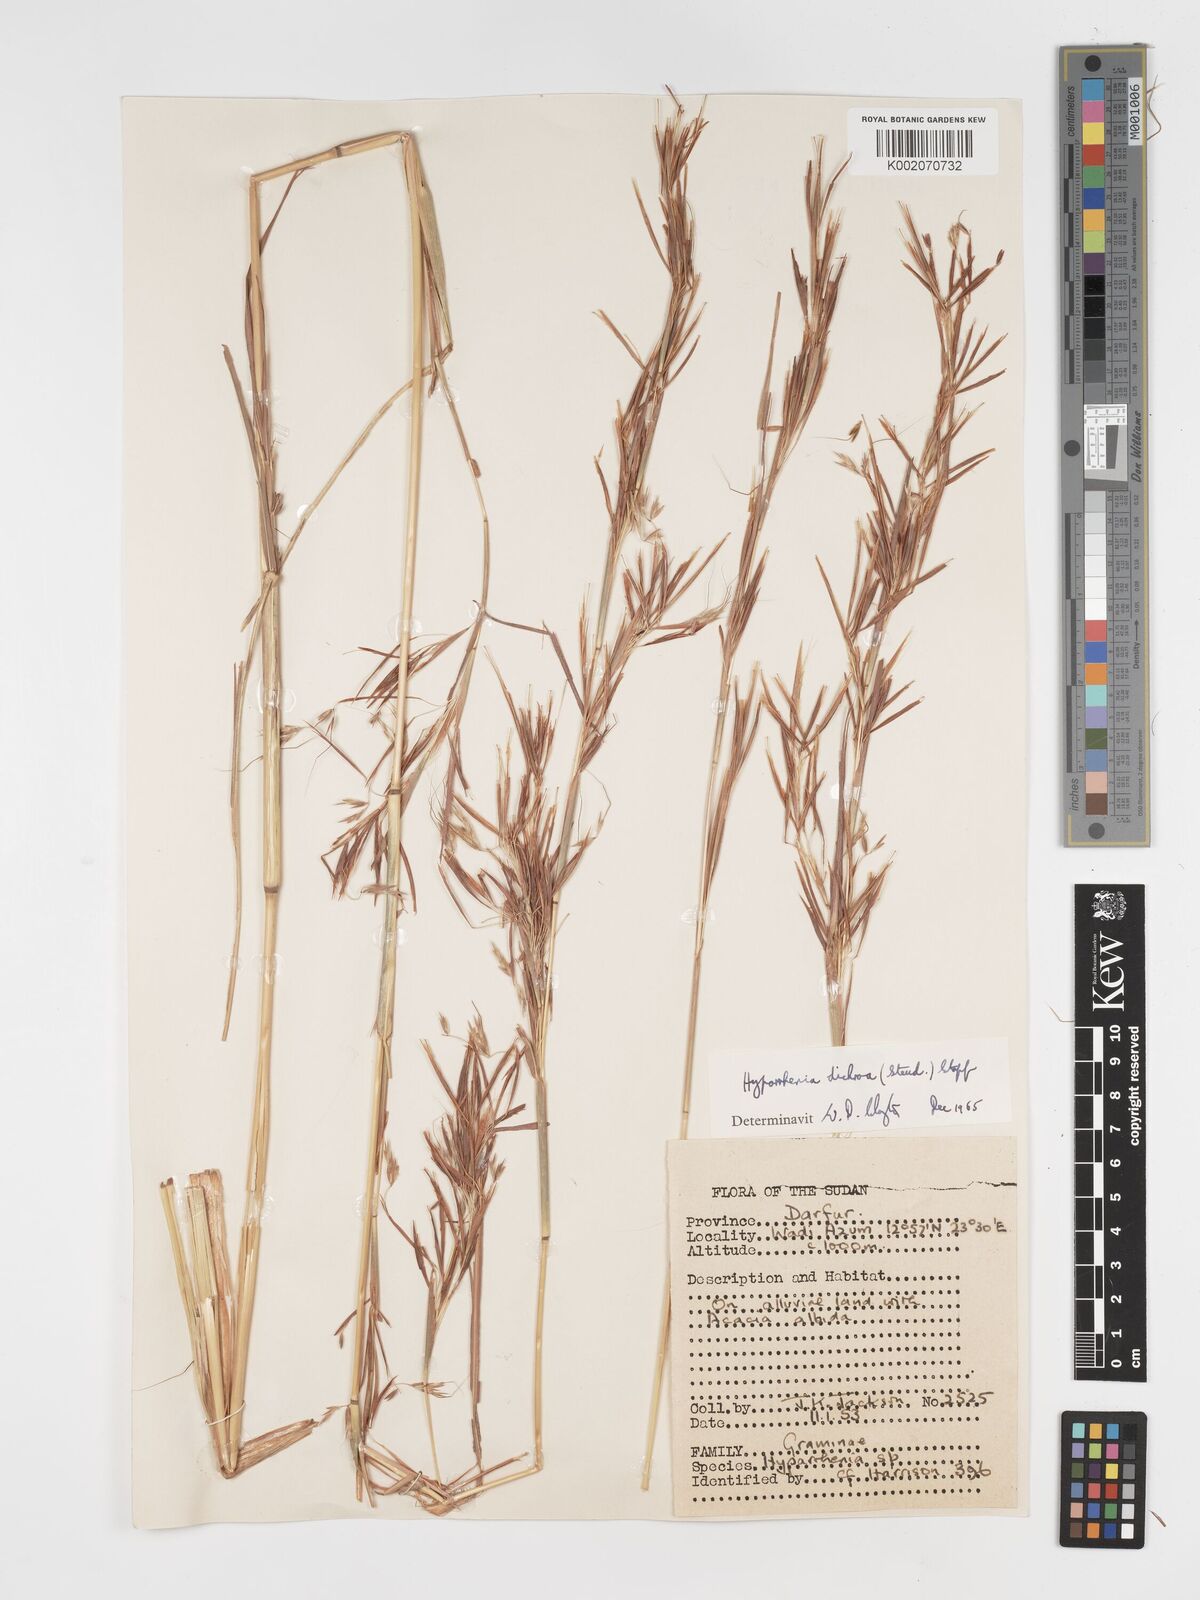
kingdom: Plantae
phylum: Tracheophyta
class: Liliopsida
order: Poales
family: Poaceae
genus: Hyparrhenia
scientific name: Hyparrhenia dichroa
